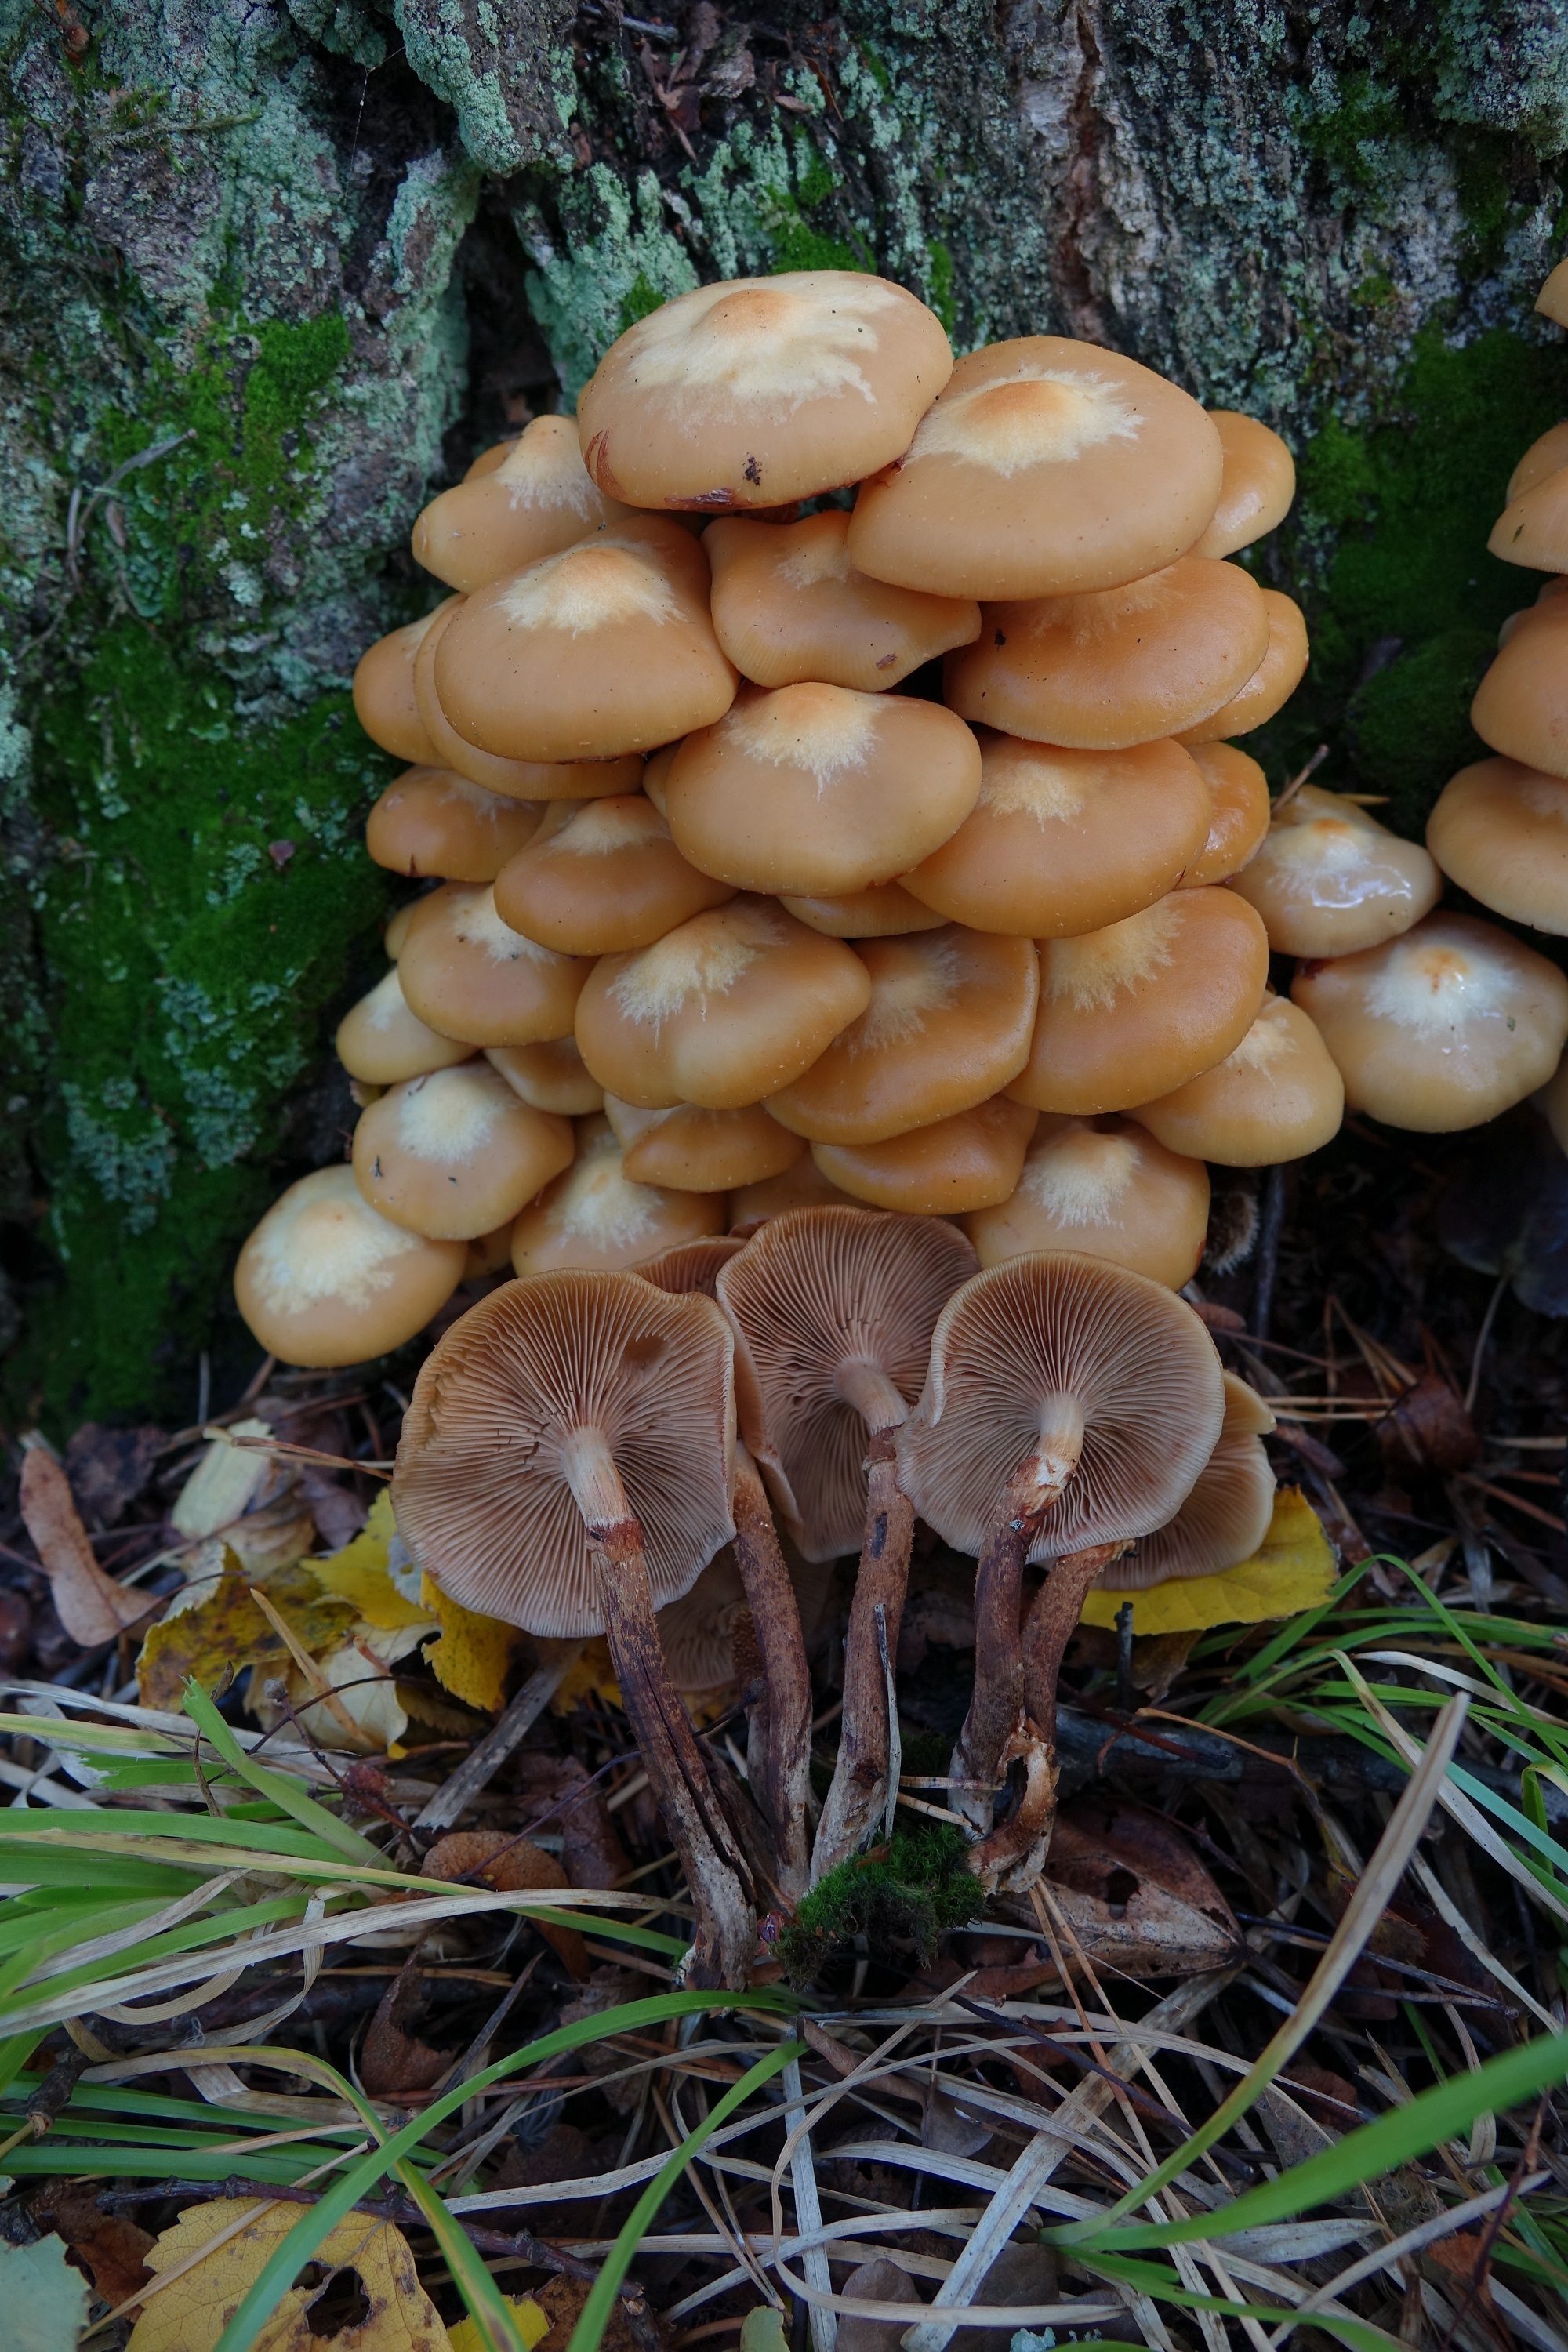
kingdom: Fungi
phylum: Basidiomycota
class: Agaricomycetes
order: Agaricales
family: Strophariaceae
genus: Kuehneromyces
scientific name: Kuehneromyces mutabilis
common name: Sheathed woodtuft
